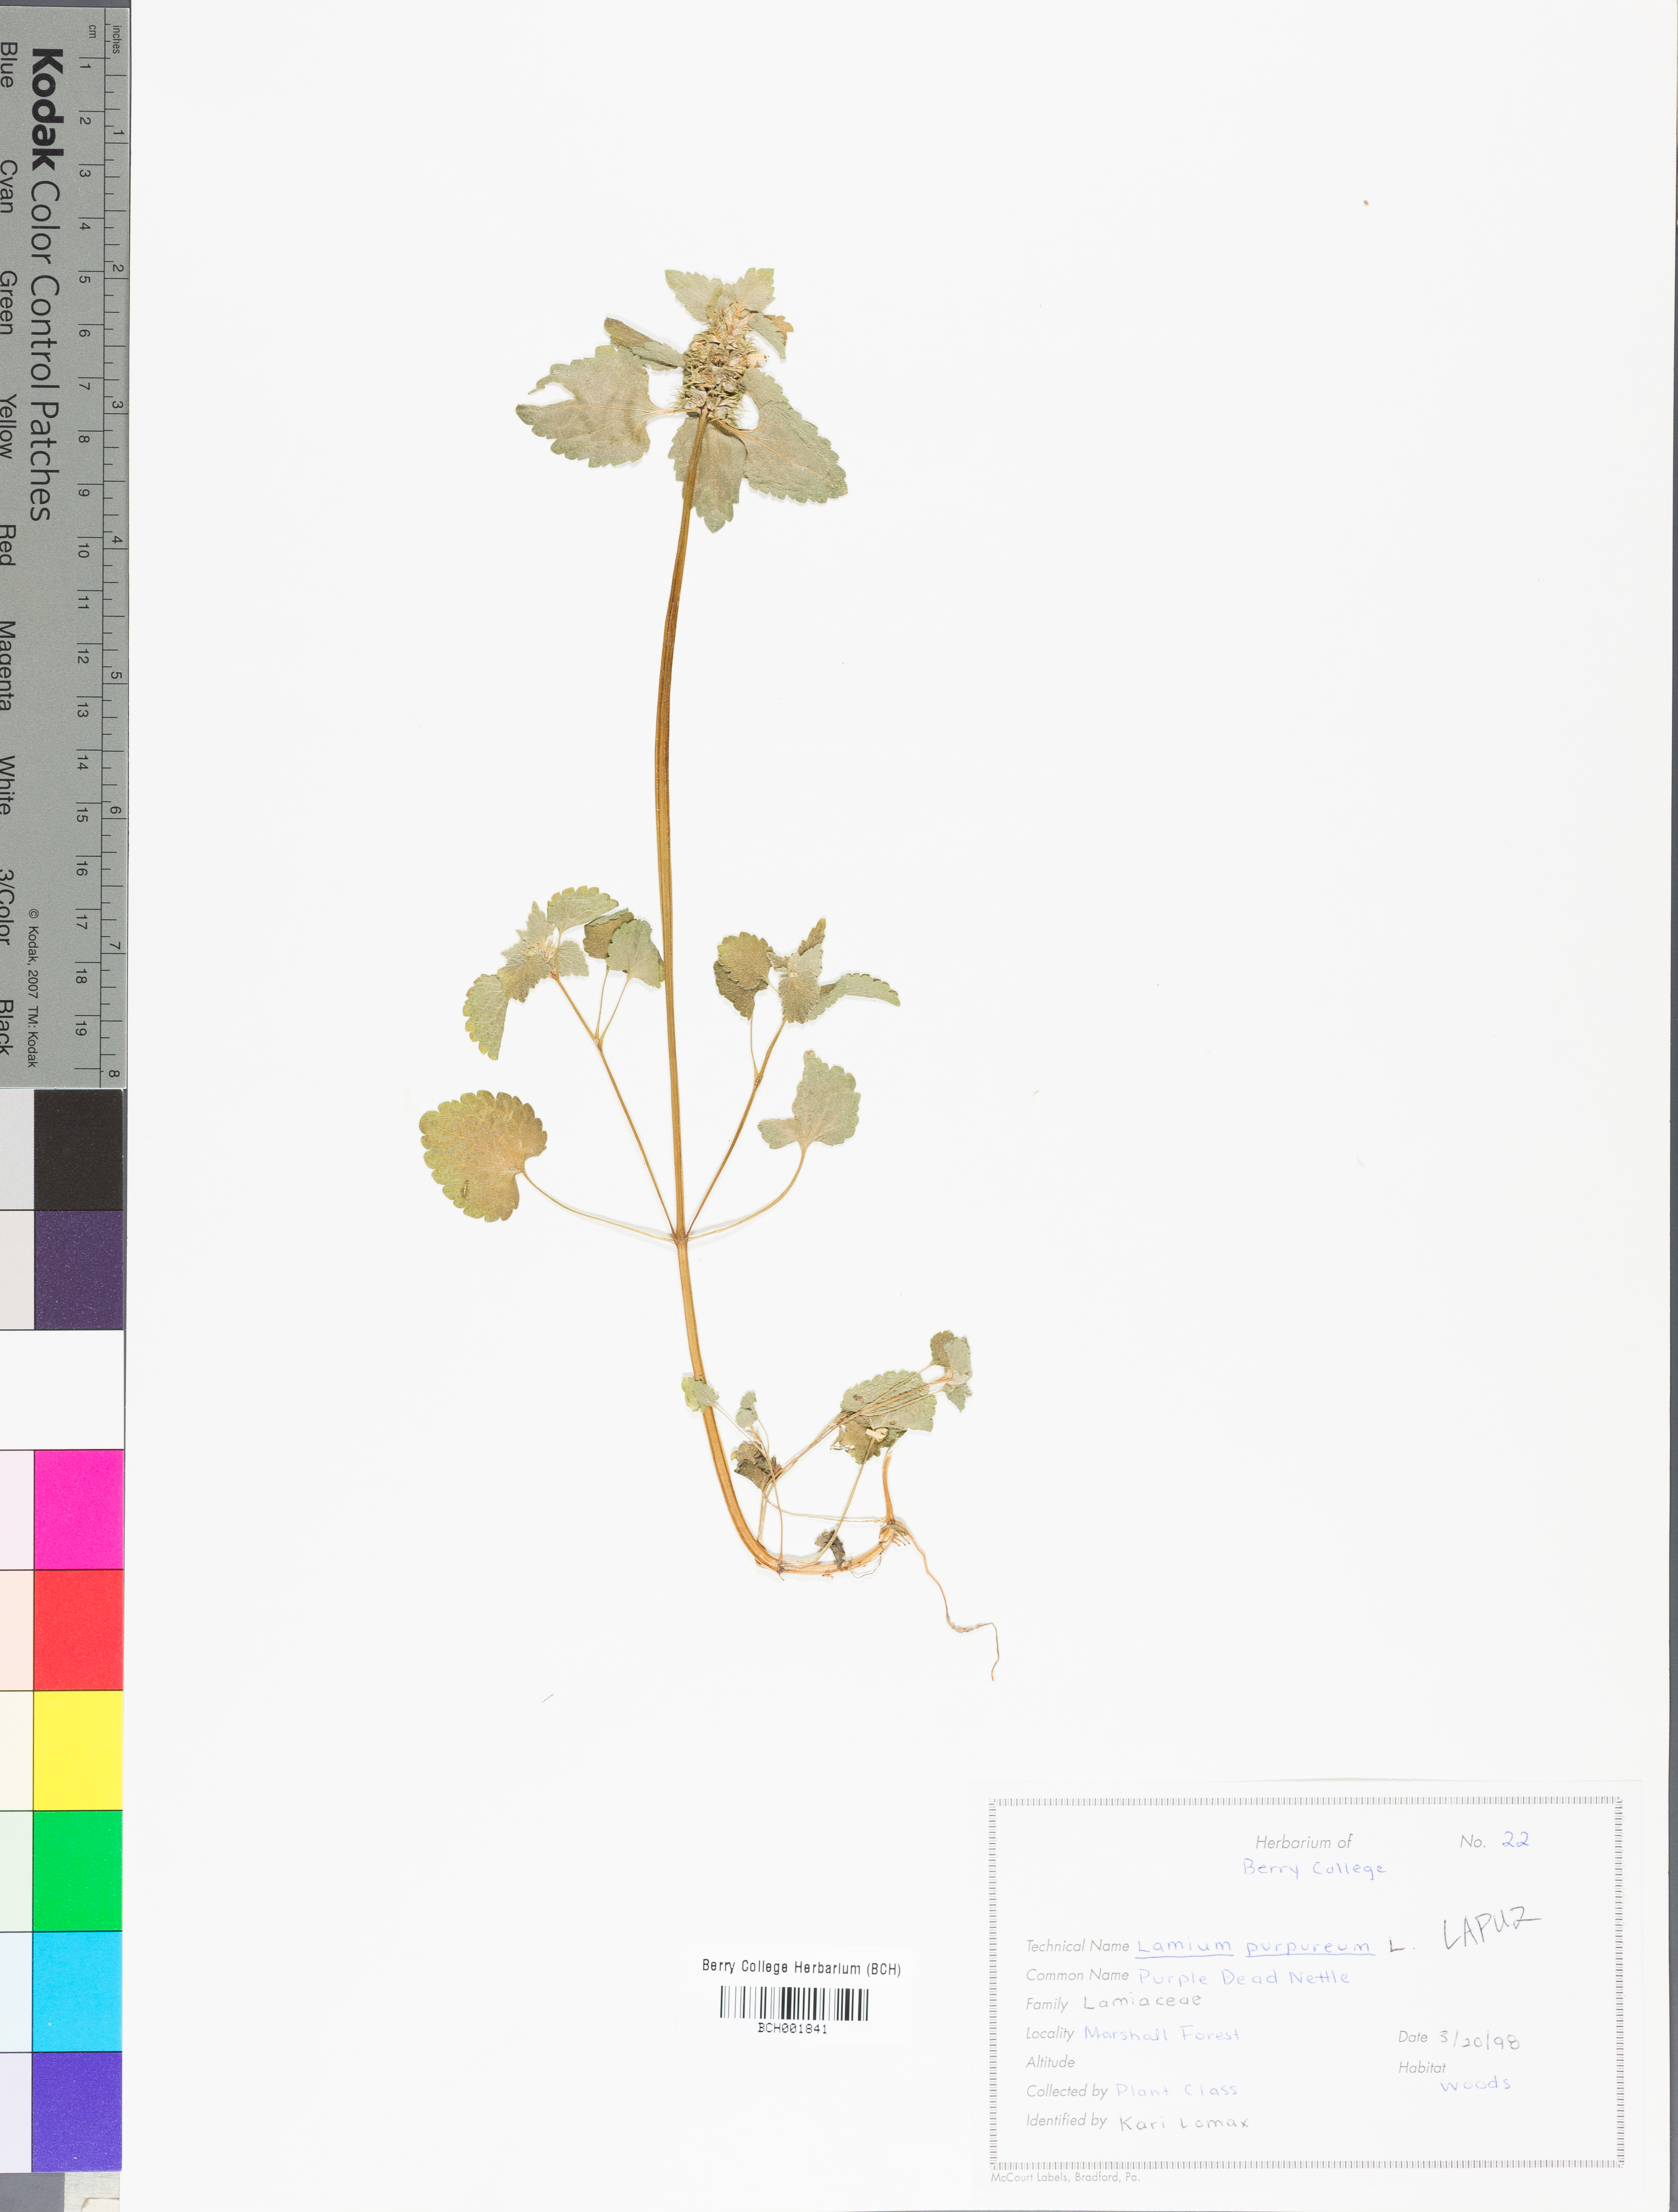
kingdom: Plantae
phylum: Tracheophyta
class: Magnoliopsida
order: Lamiales
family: Lamiaceae
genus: Lamium
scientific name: Lamium purpureum
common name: Red dead-nettle
